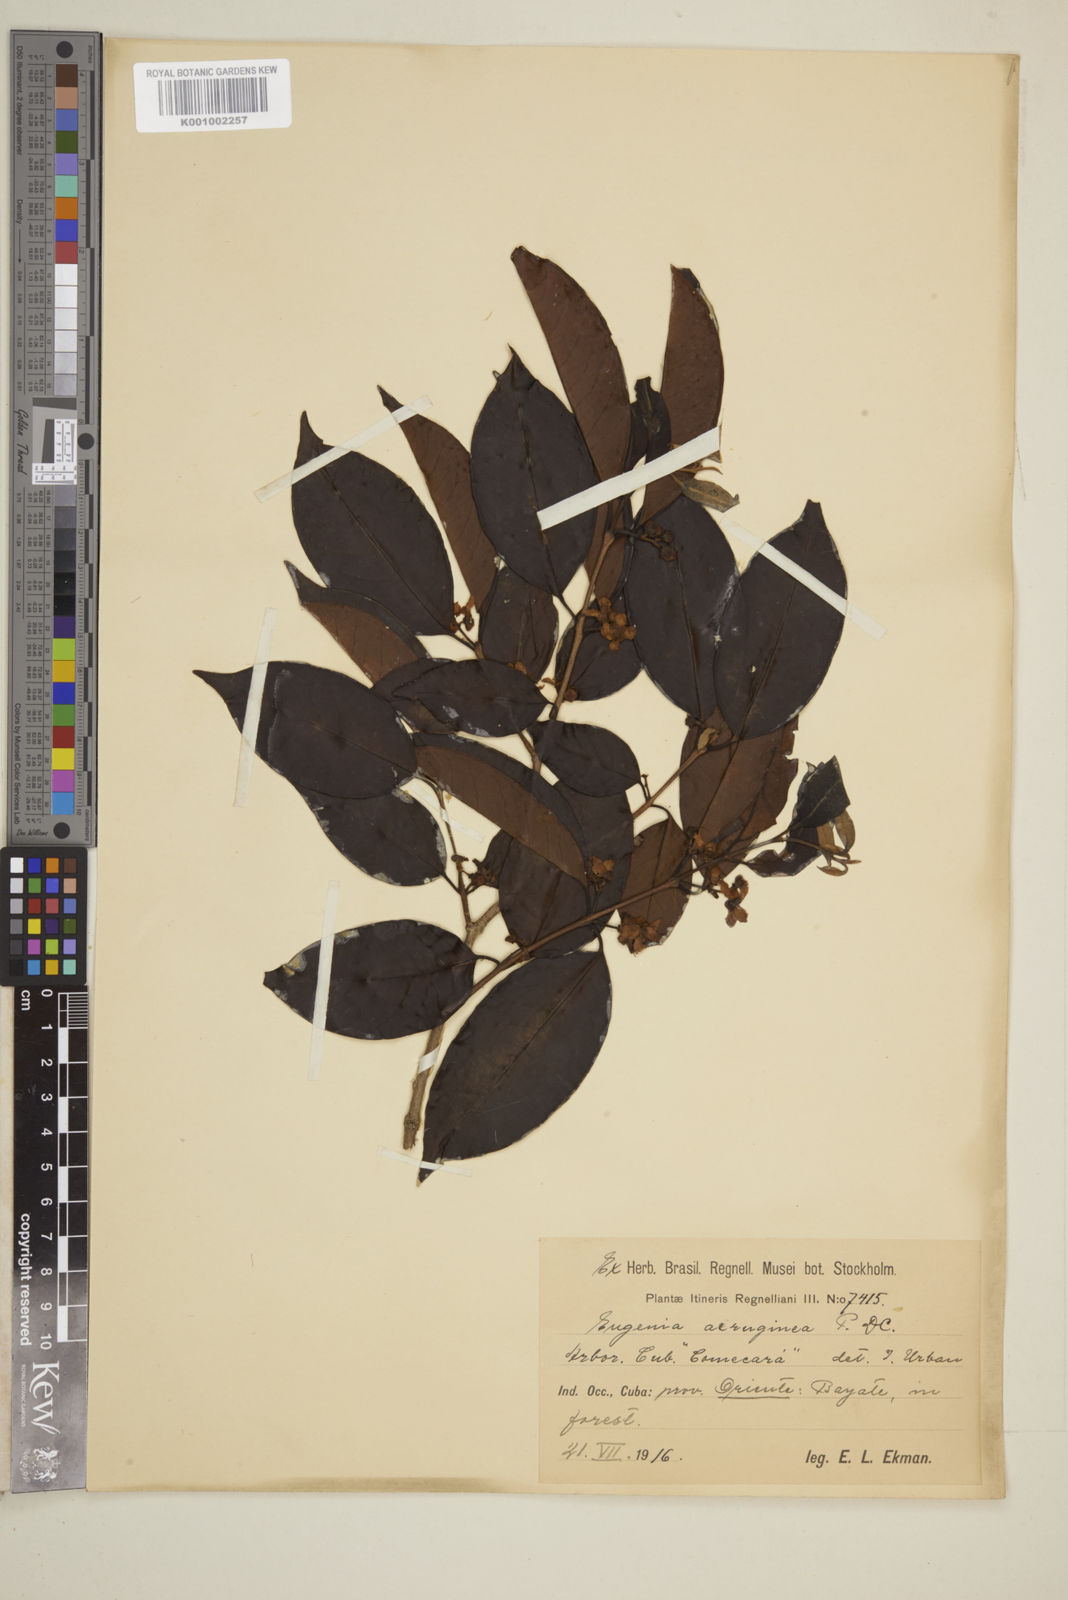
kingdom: Plantae
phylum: Tracheophyta
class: Magnoliopsida
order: Myrtales
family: Myrtaceae
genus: Eugenia
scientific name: Eugenia domingensis
